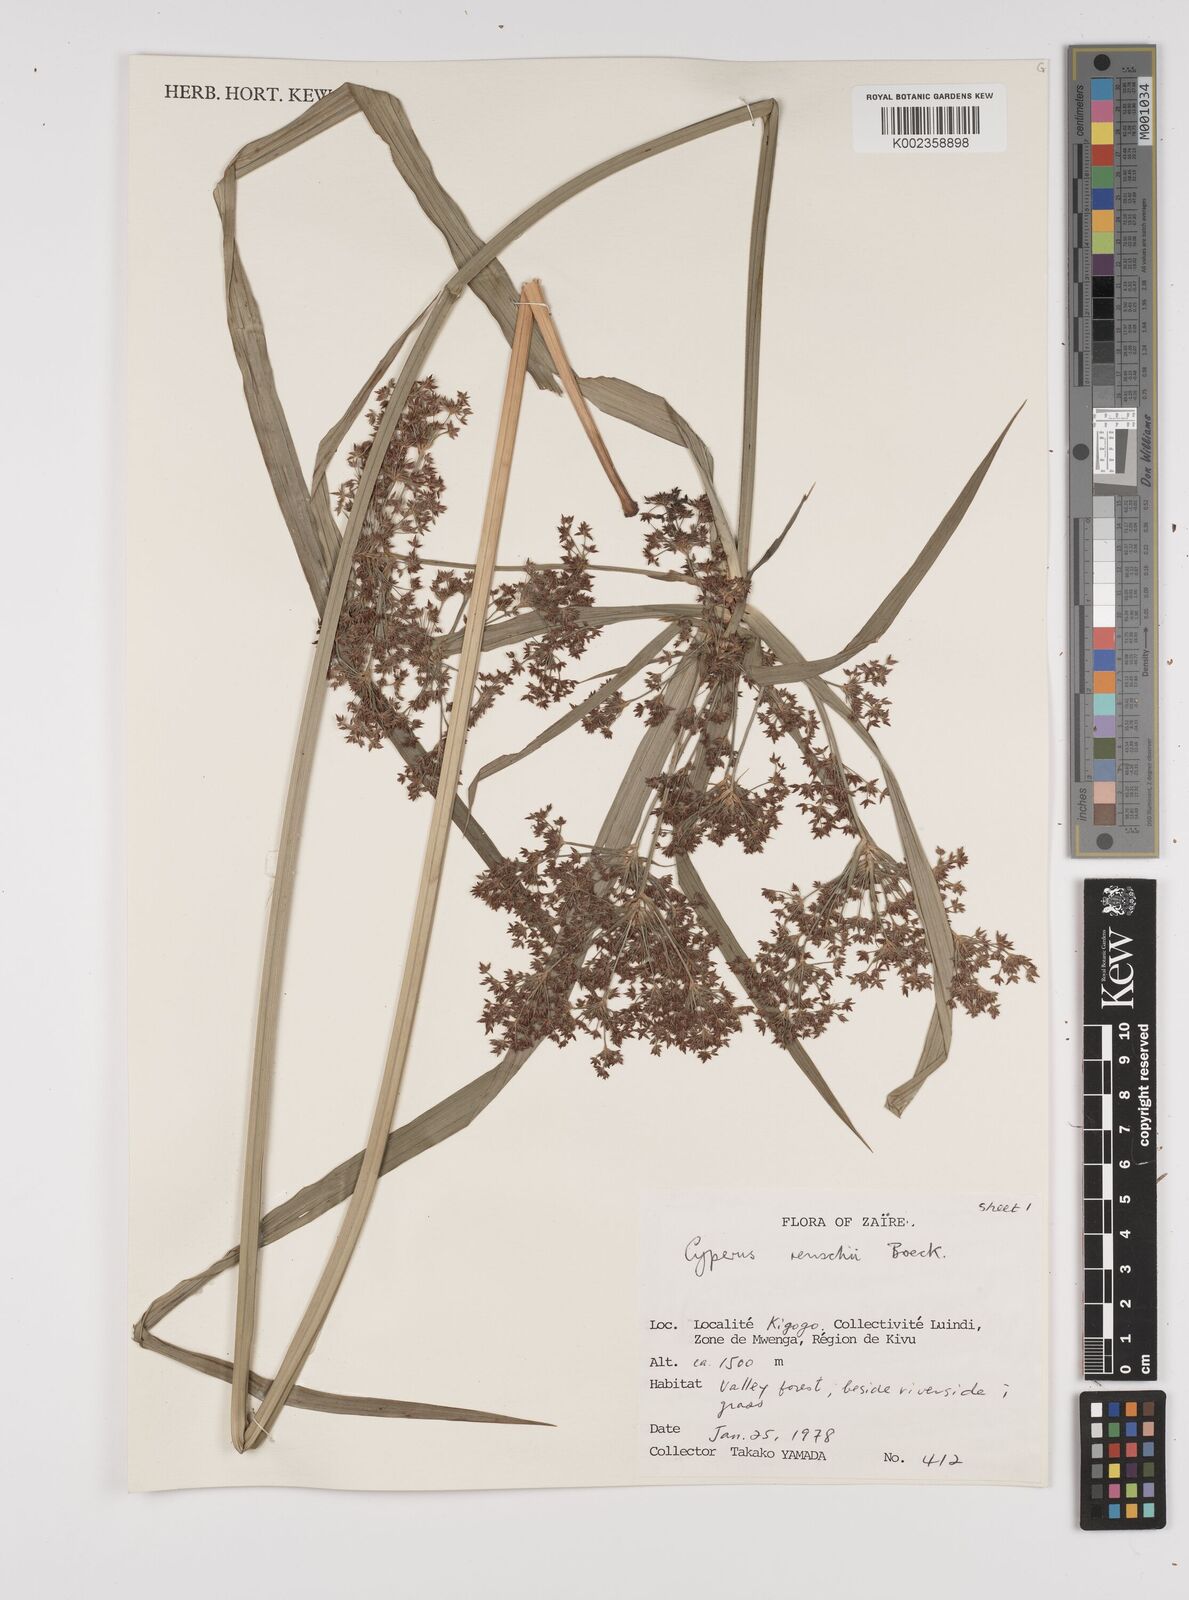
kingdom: Plantae
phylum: Tracheophyta
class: Liliopsida
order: Poales
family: Cyperaceae
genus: Cyperus
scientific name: Cyperus renschii
